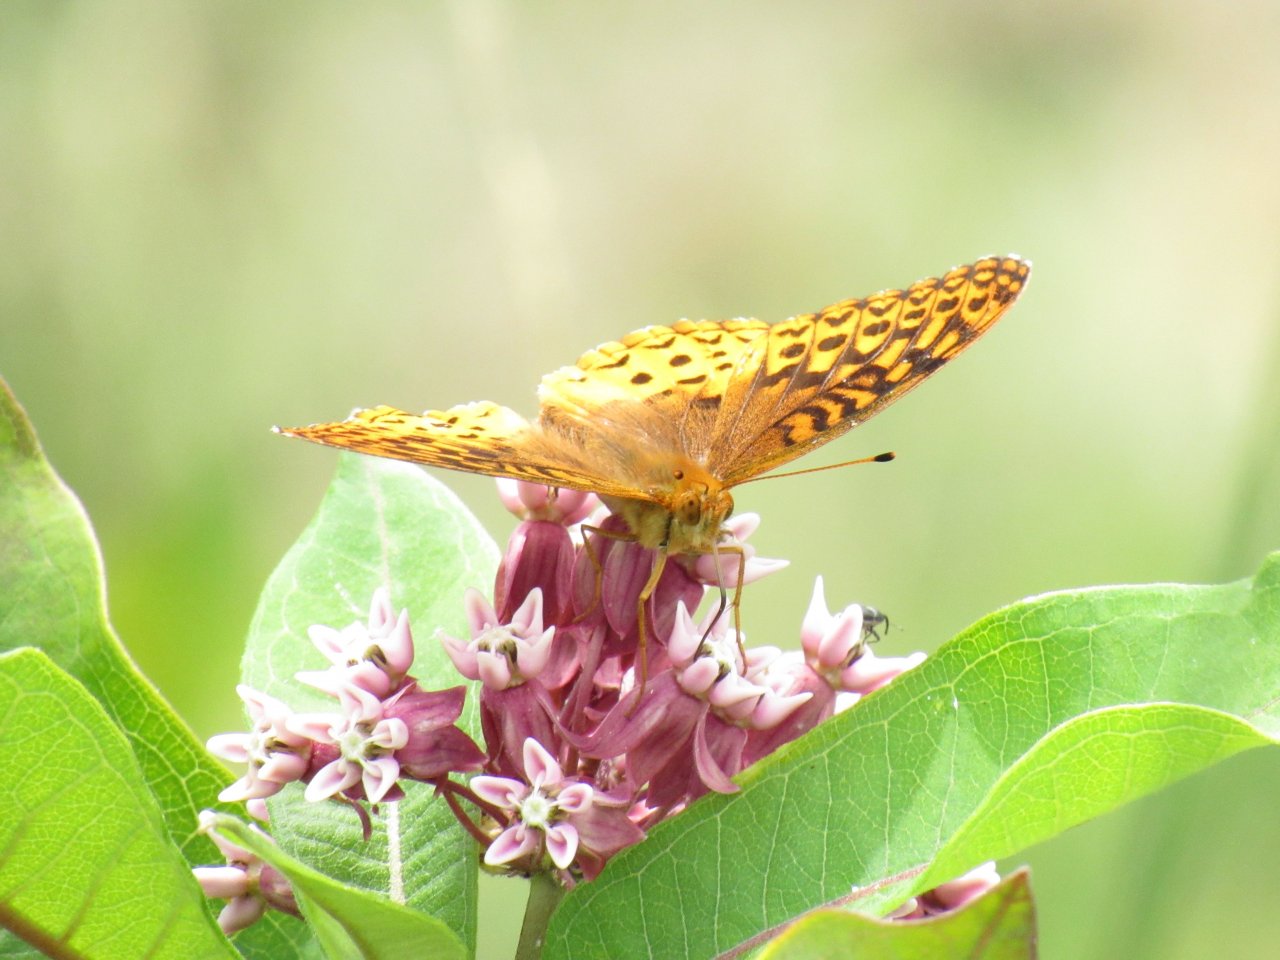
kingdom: Animalia
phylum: Arthropoda
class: Insecta
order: Lepidoptera
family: Nymphalidae
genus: Speyeria
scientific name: Speyeria cybele
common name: Great Spangled Fritillary
